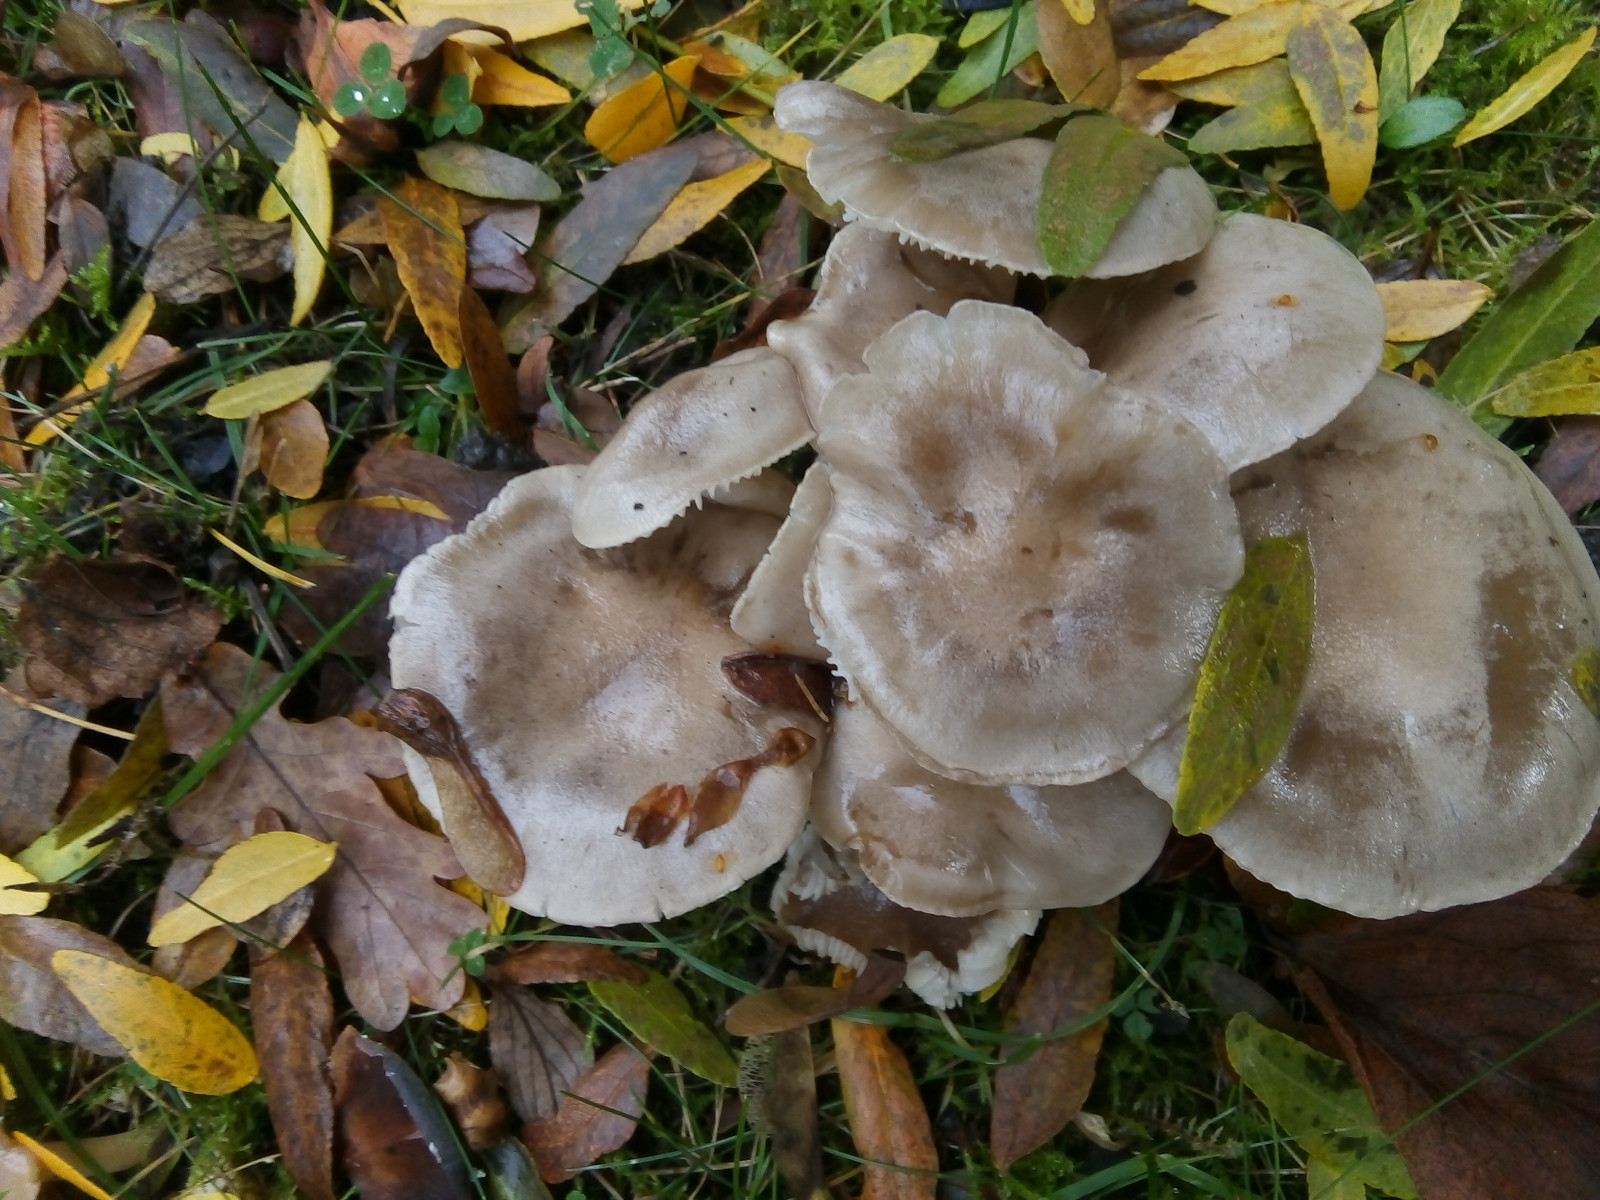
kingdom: Fungi
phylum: Basidiomycota
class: Agaricomycetes
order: Agaricales
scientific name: Agaricales
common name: champignonordenen
